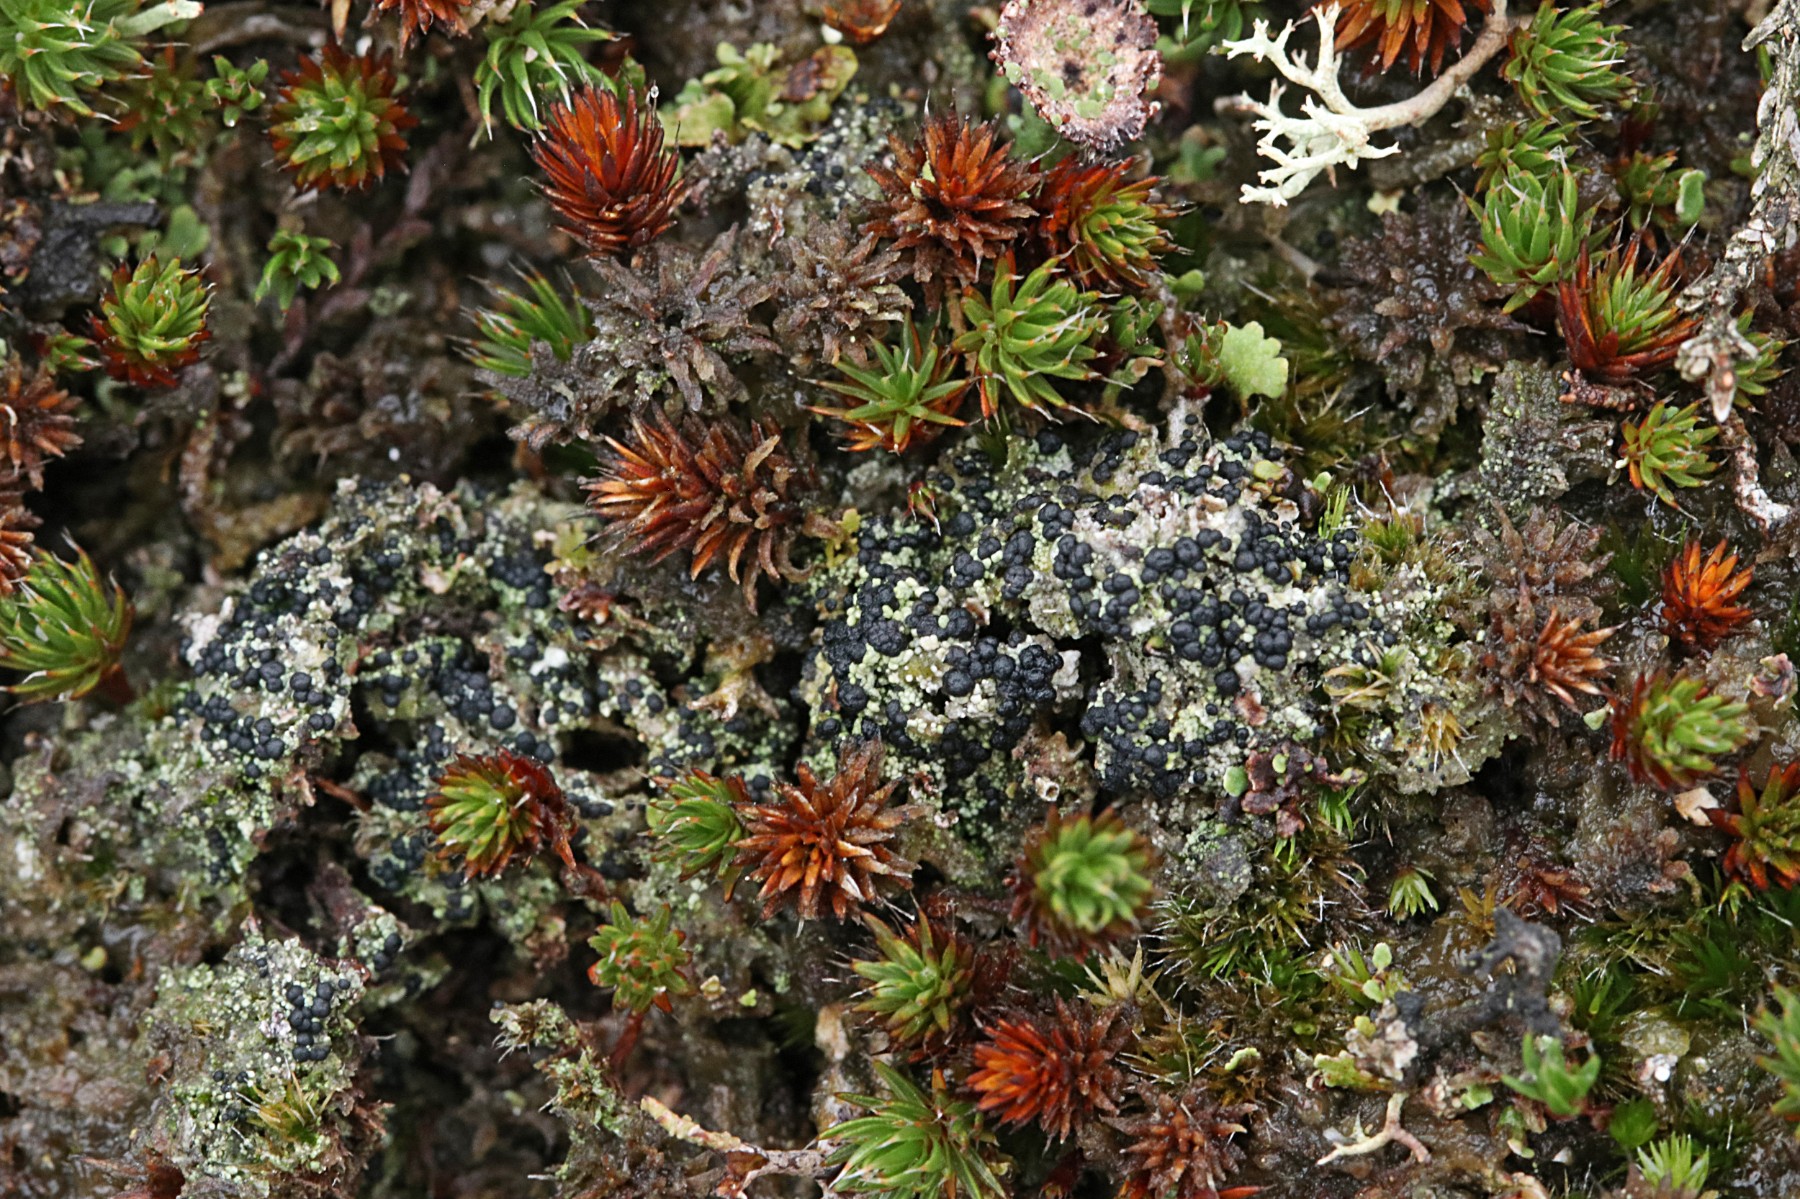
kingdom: Fungi
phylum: Ascomycota
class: Lecanoromycetes
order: Lecanorales
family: Byssolomataceae
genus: Micarea
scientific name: Micarea lignaria
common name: tørve-knaplav
